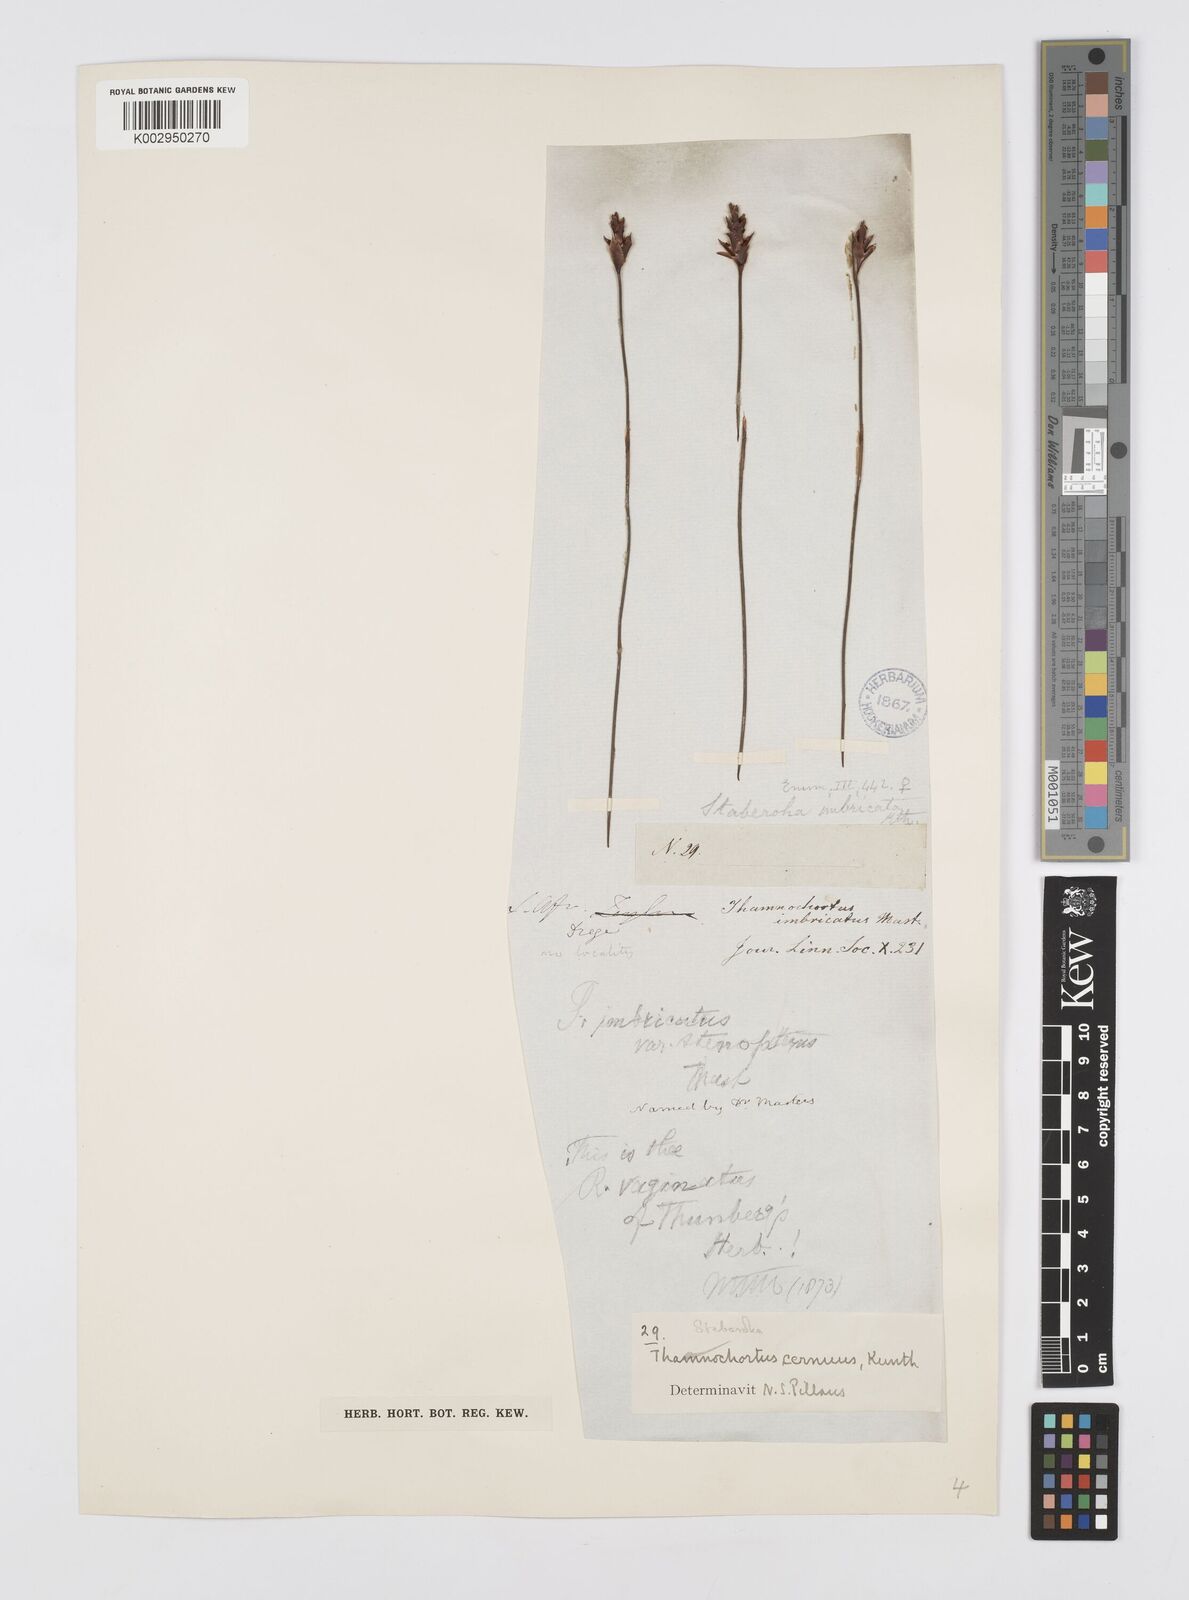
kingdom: Plantae
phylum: Tracheophyta
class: Liliopsida
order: Poales
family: Restionaceae
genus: Staberoha
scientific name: Staberoha cernua
